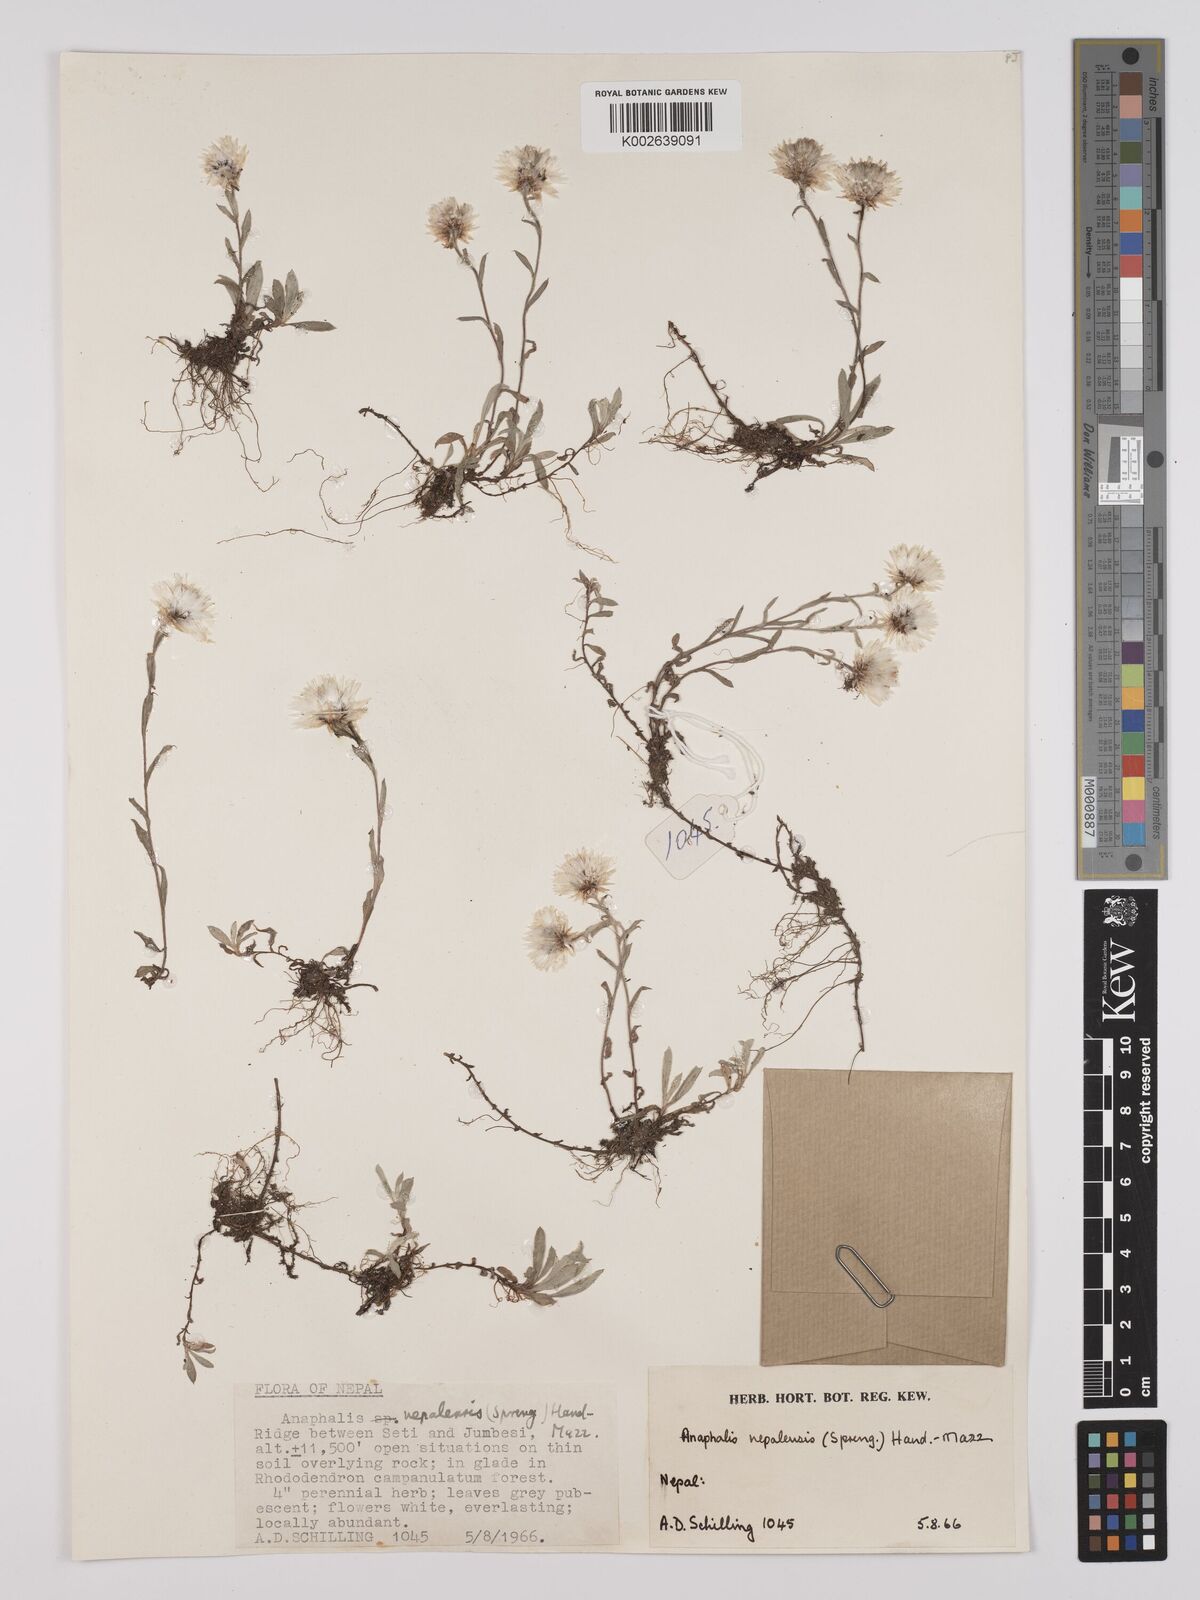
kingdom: Plantae
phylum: Tracheophyta
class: Magnoliopsida
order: Asterales
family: Asteraceae
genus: Anaphalis
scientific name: Anaphalis nepalensis
